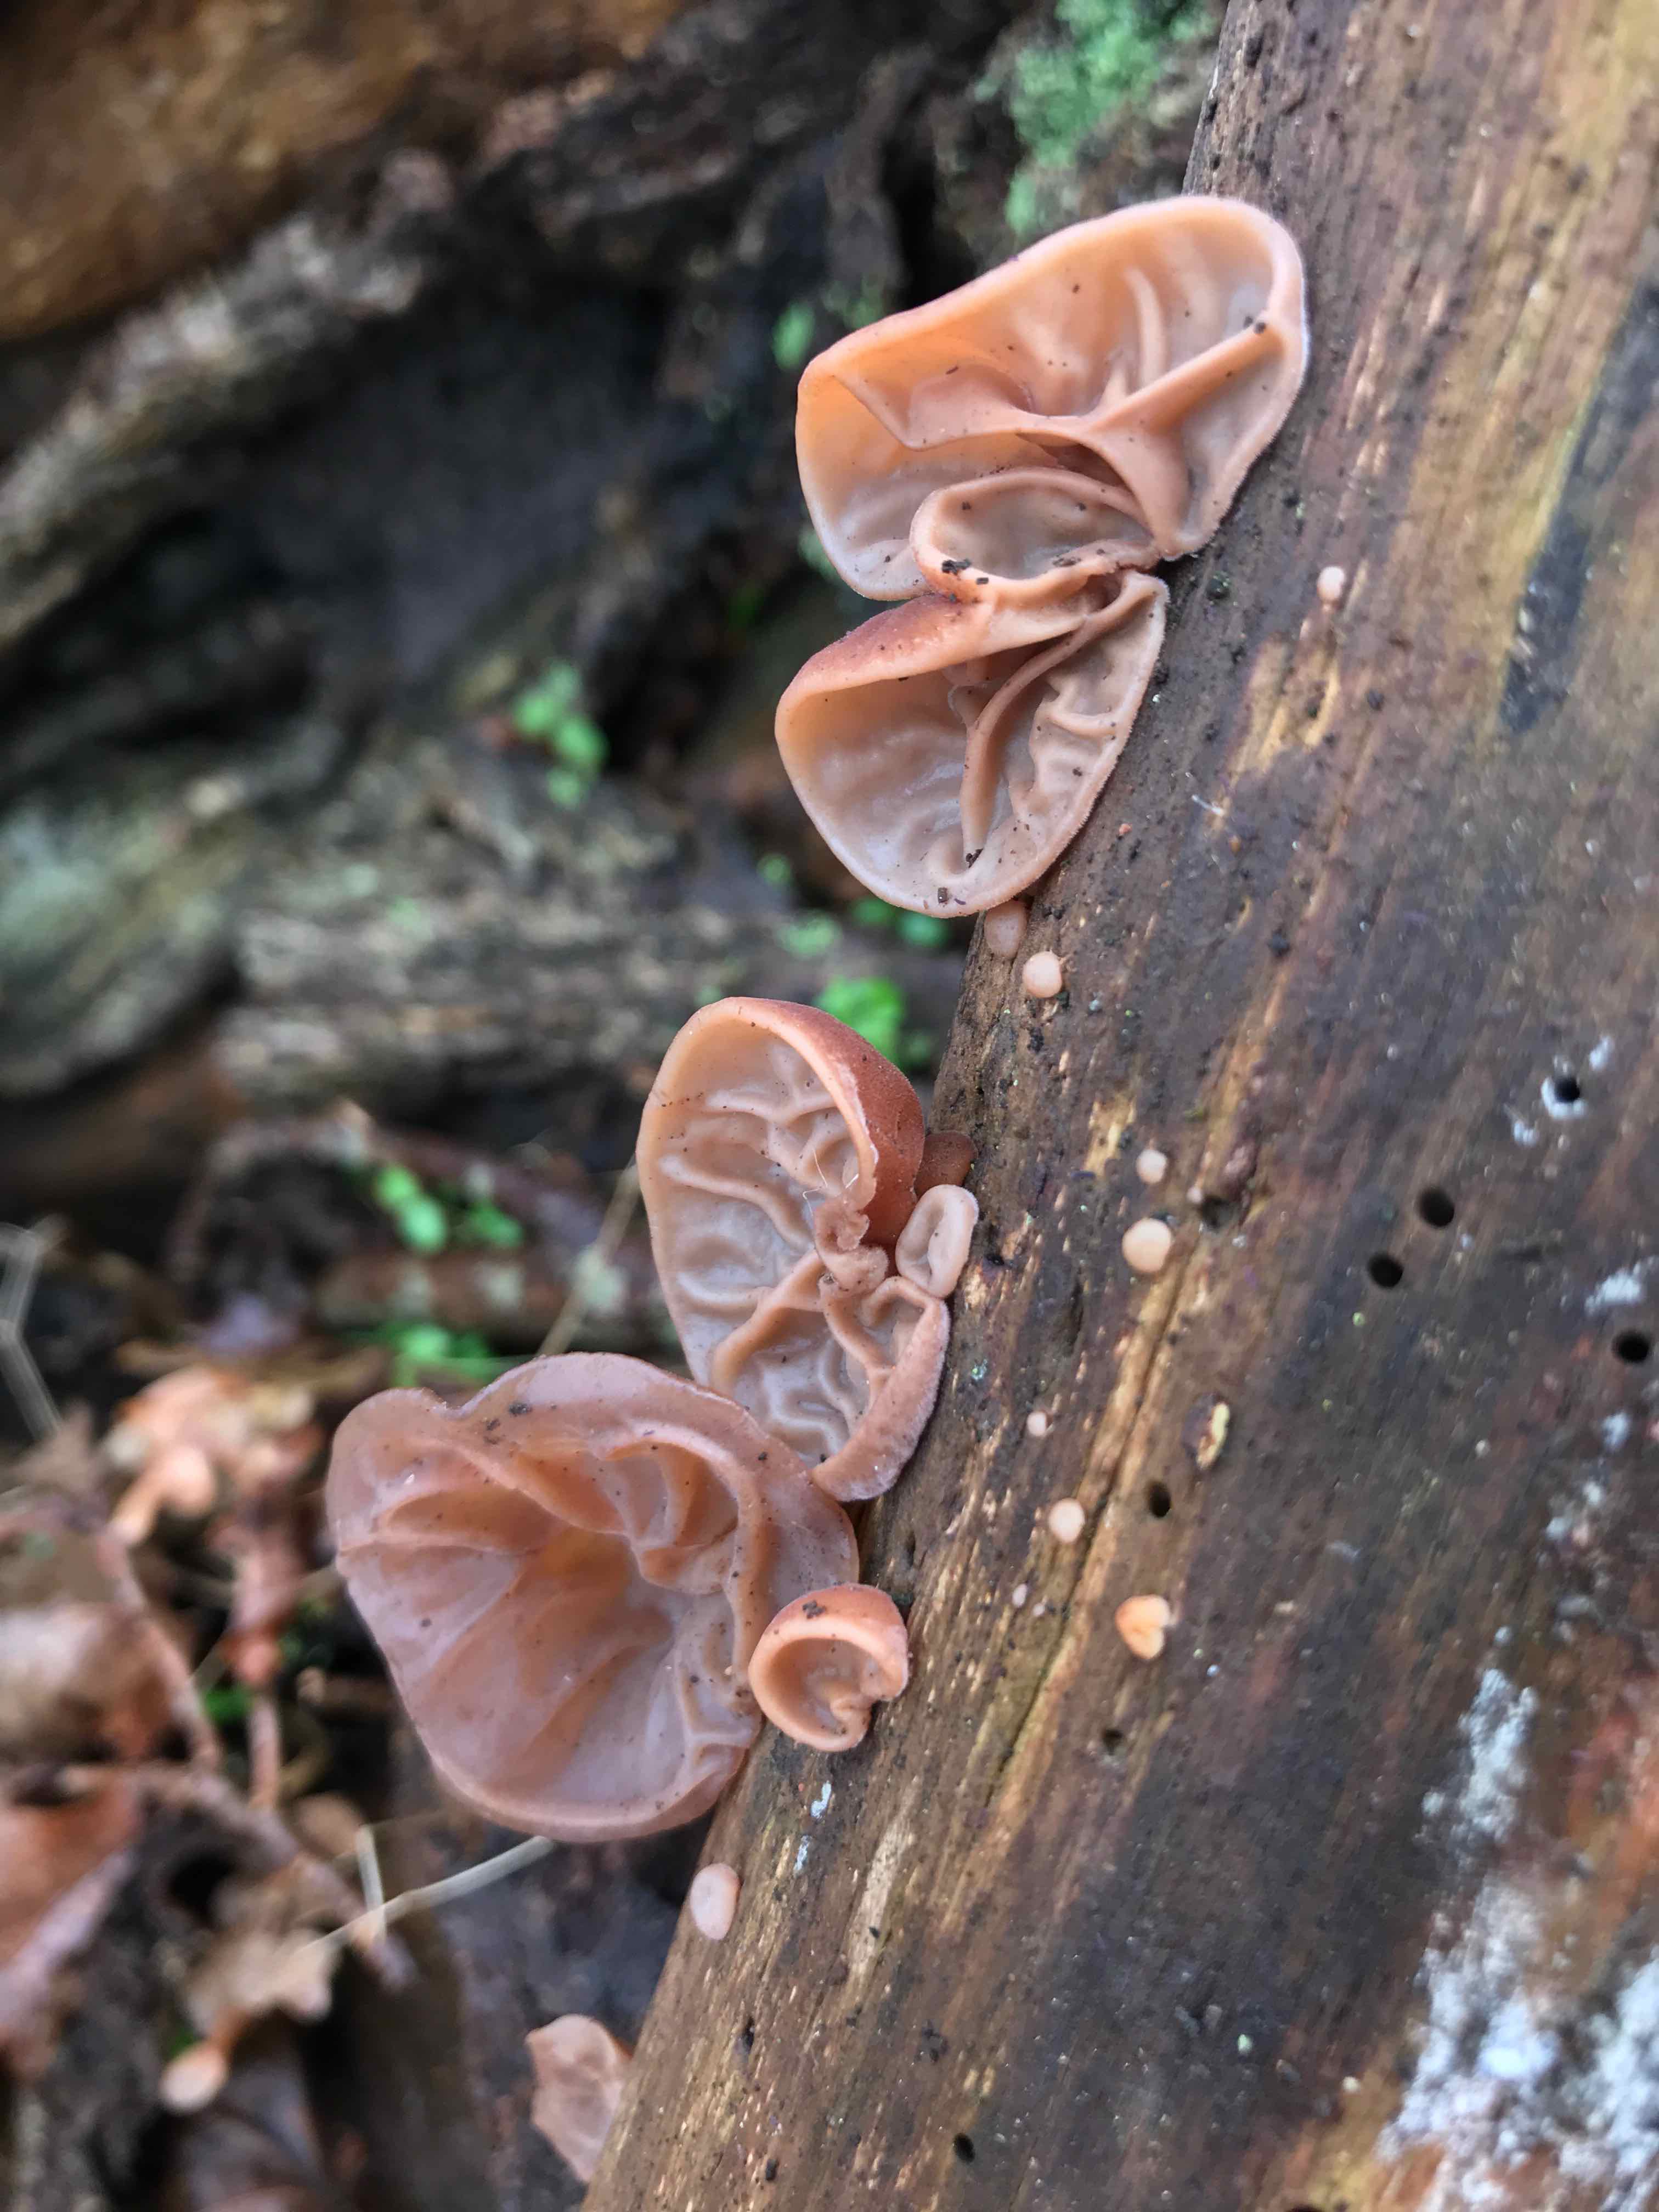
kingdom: Fungi
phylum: Basidiomycota
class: Agaricomycetes
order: Auriculariales
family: Auriculariaceae
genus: Auricularia
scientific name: Auricularia auricula-judae
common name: almindelig judasøre
